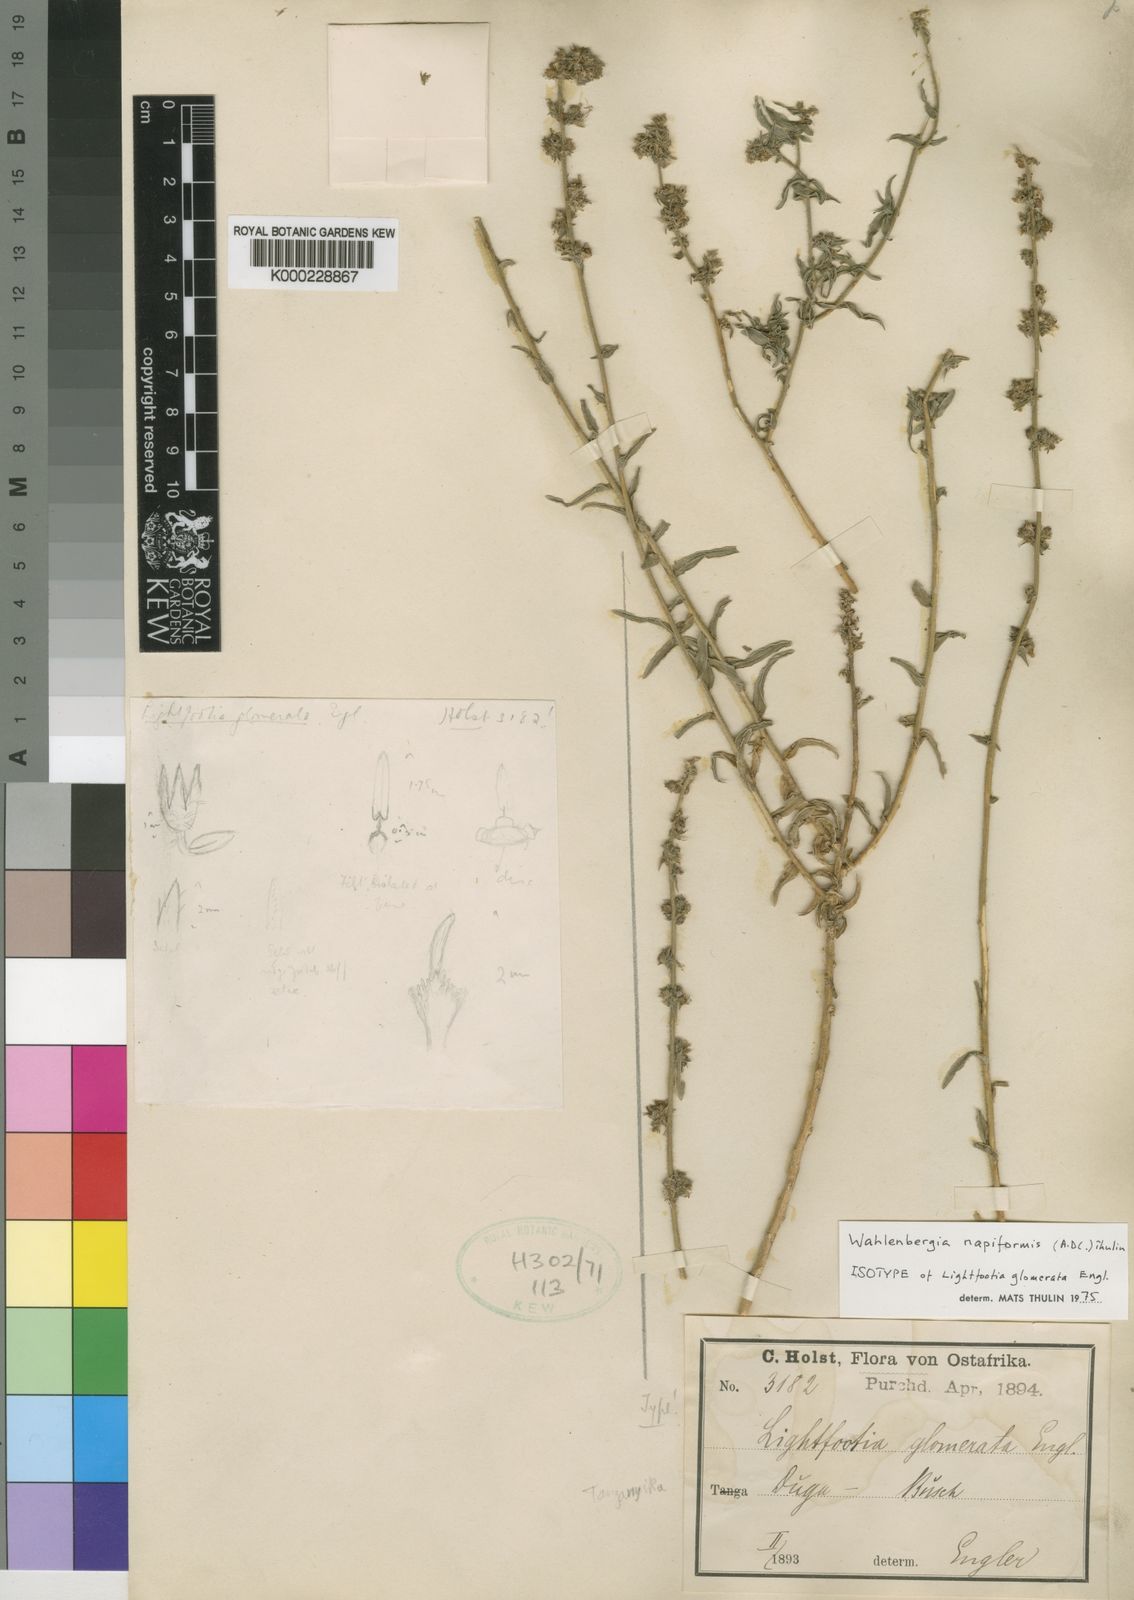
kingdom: Plantae
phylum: Tracheophyta
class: Magnoliopsida
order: Asterales
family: Campanulaceae
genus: Wahlenbergia
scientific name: Wahlenbergia napiformis
